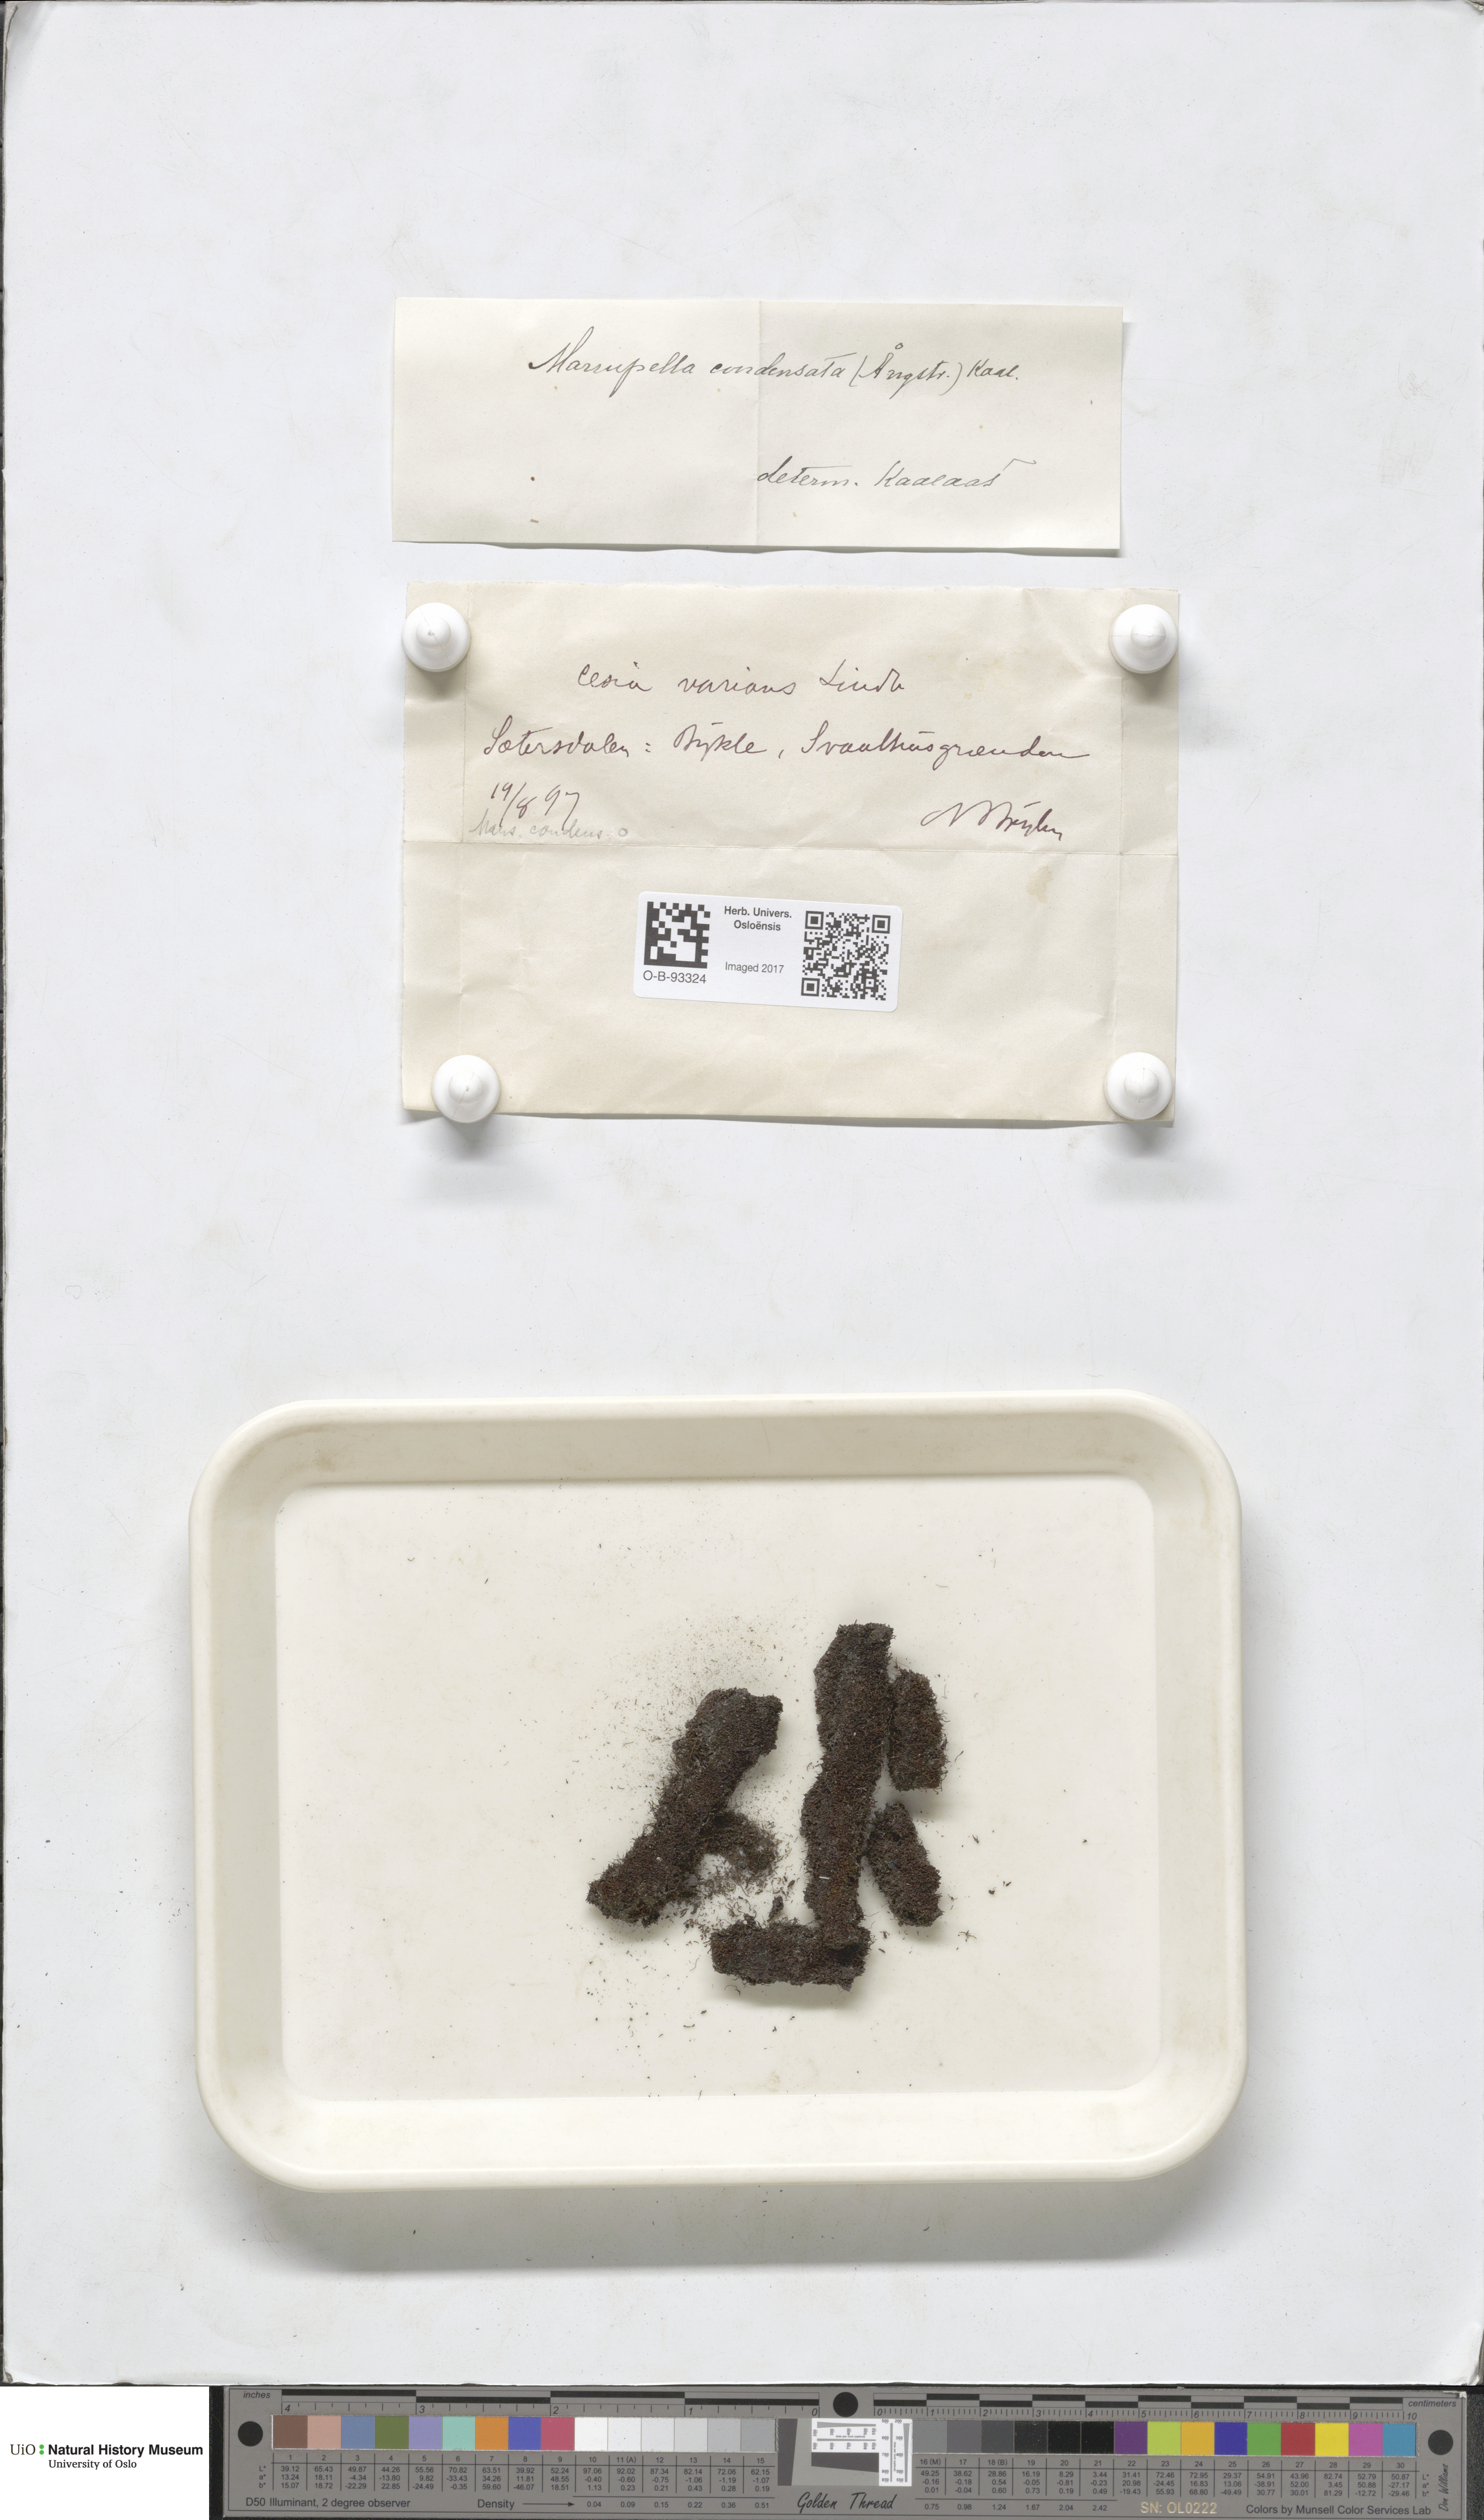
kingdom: Plantae
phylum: Marchantiophyta
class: Jungermanniopsida
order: Jungermanniales
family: Gymnomitriaceae
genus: Gymnomitrion
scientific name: Gymnomitrion brevissimum
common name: Snow rustwort
